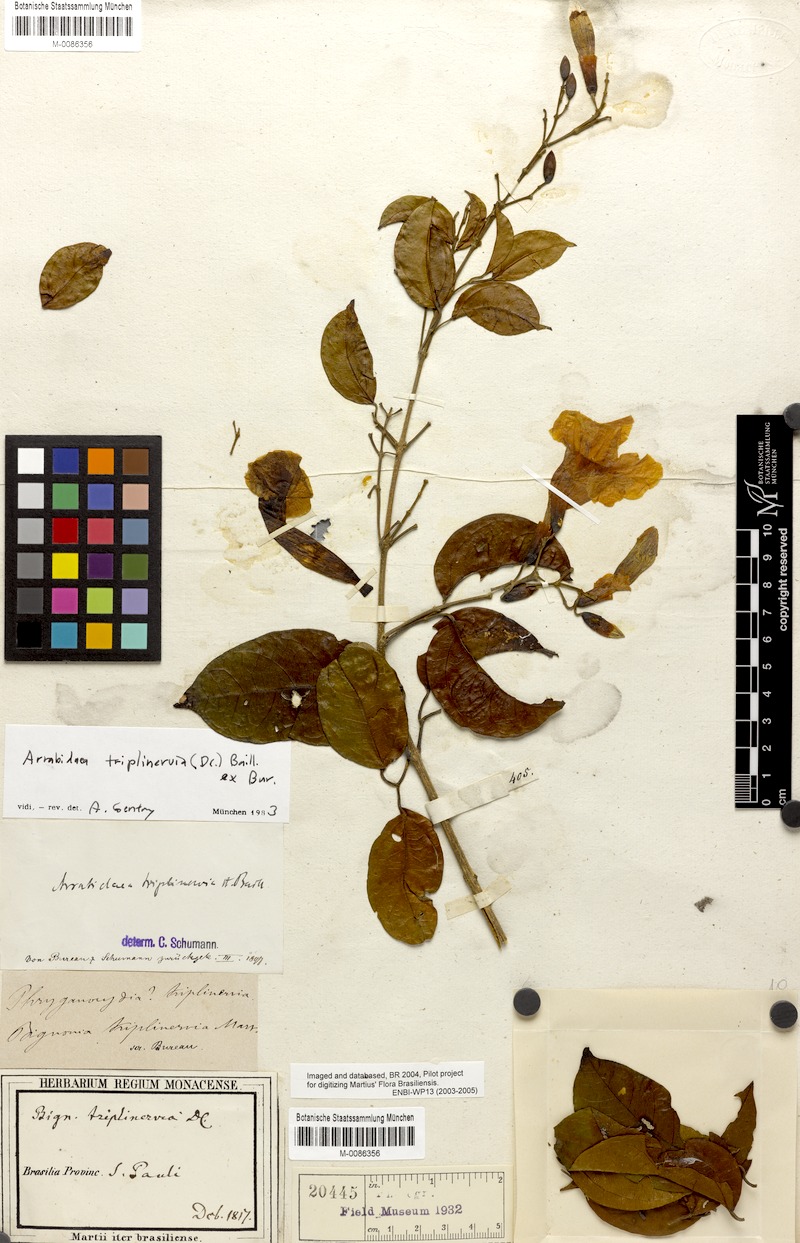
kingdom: Plantae
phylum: Tracheophyta
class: Magnoliopsida
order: Lamiales
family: Bignoniaceae
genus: Fridericia
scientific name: Fridericia triplinervia
